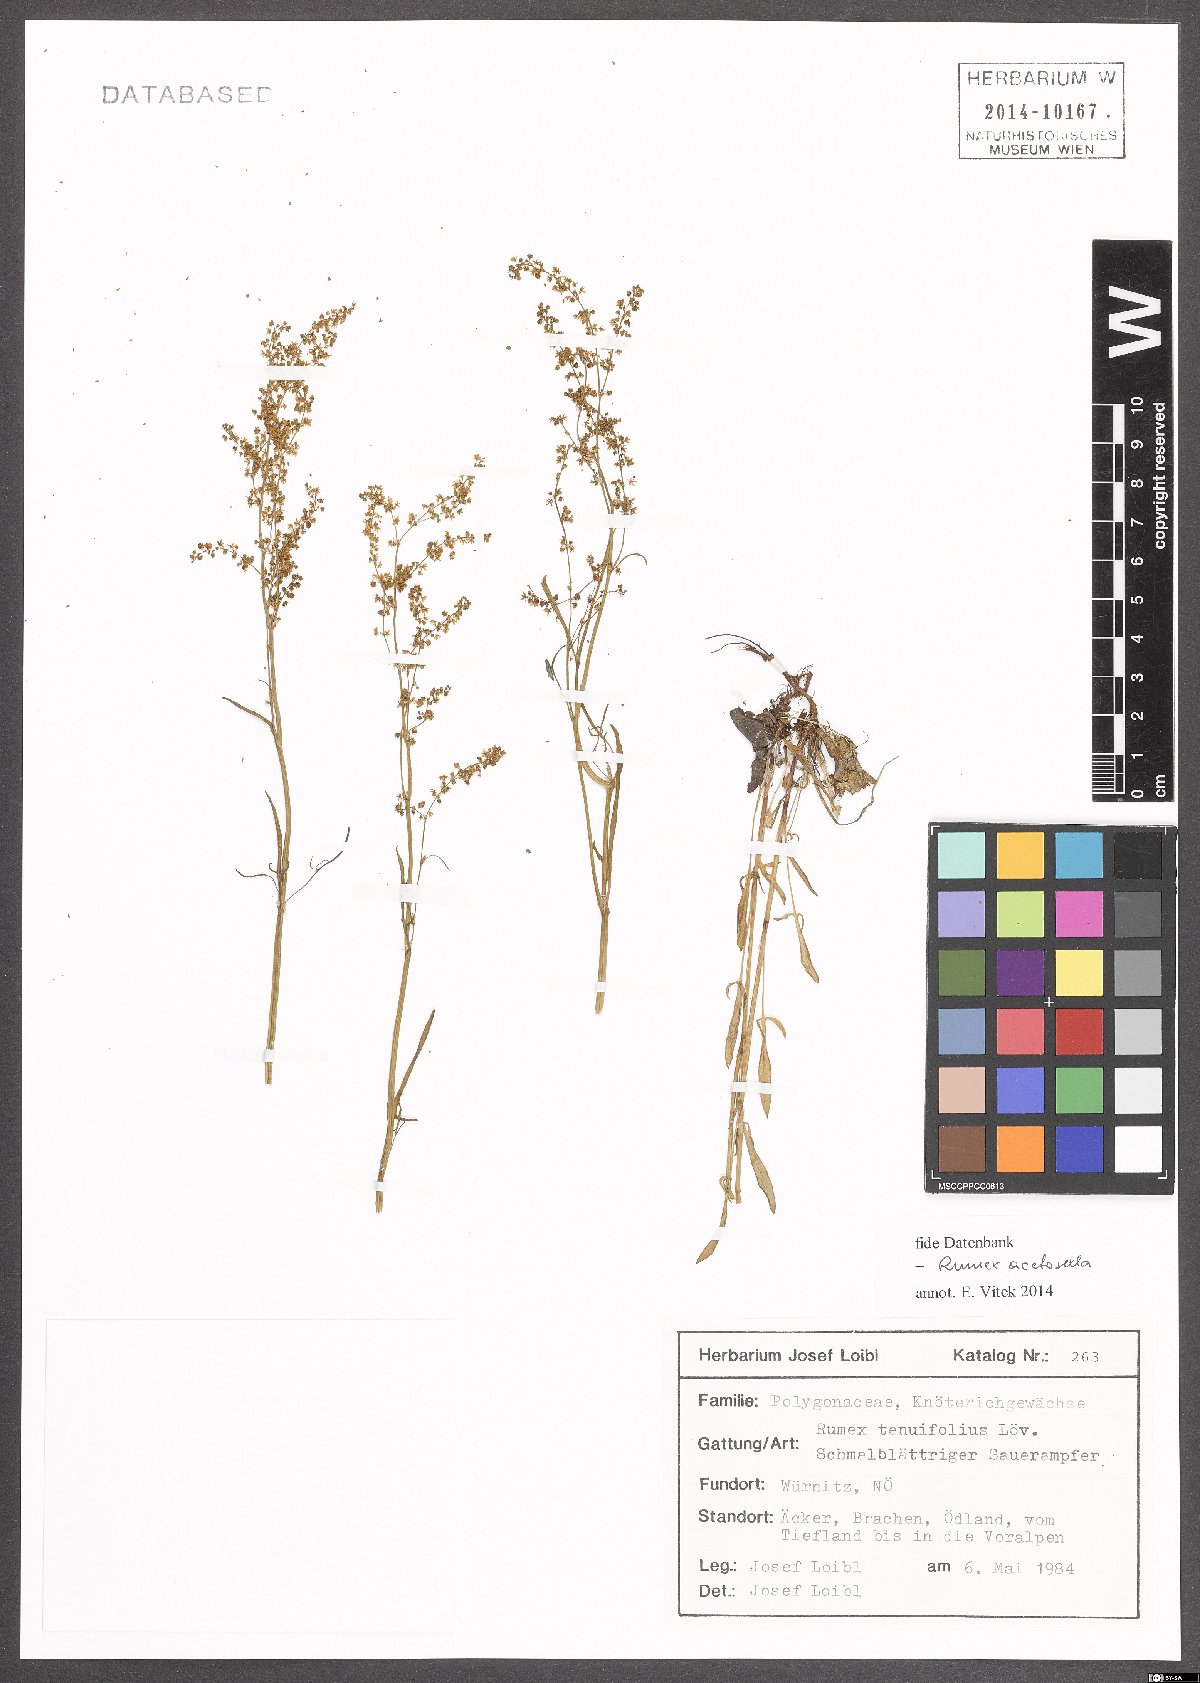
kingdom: Plantae
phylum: Tracheophyta
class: Magnoliopsida
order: Caryophyllales
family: Polygonaceae
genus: Rumex
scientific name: Rumex acetosella
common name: Common sheep sorrel
